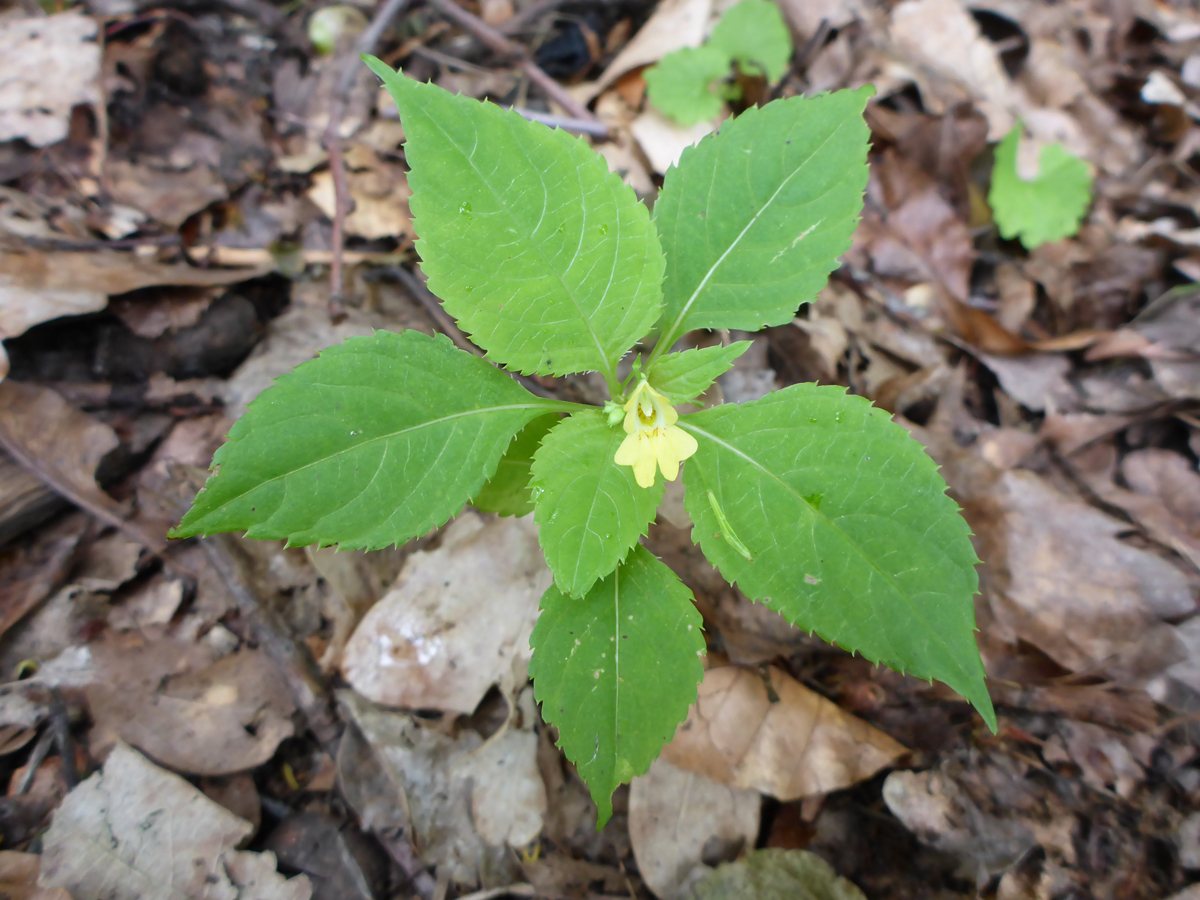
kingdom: Plantae
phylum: Tracheophyta
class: Magnoliopsida
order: Ericales
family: Balsaminaceae
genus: Impatiens
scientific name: Impatiens parviflora
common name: Small balsam
